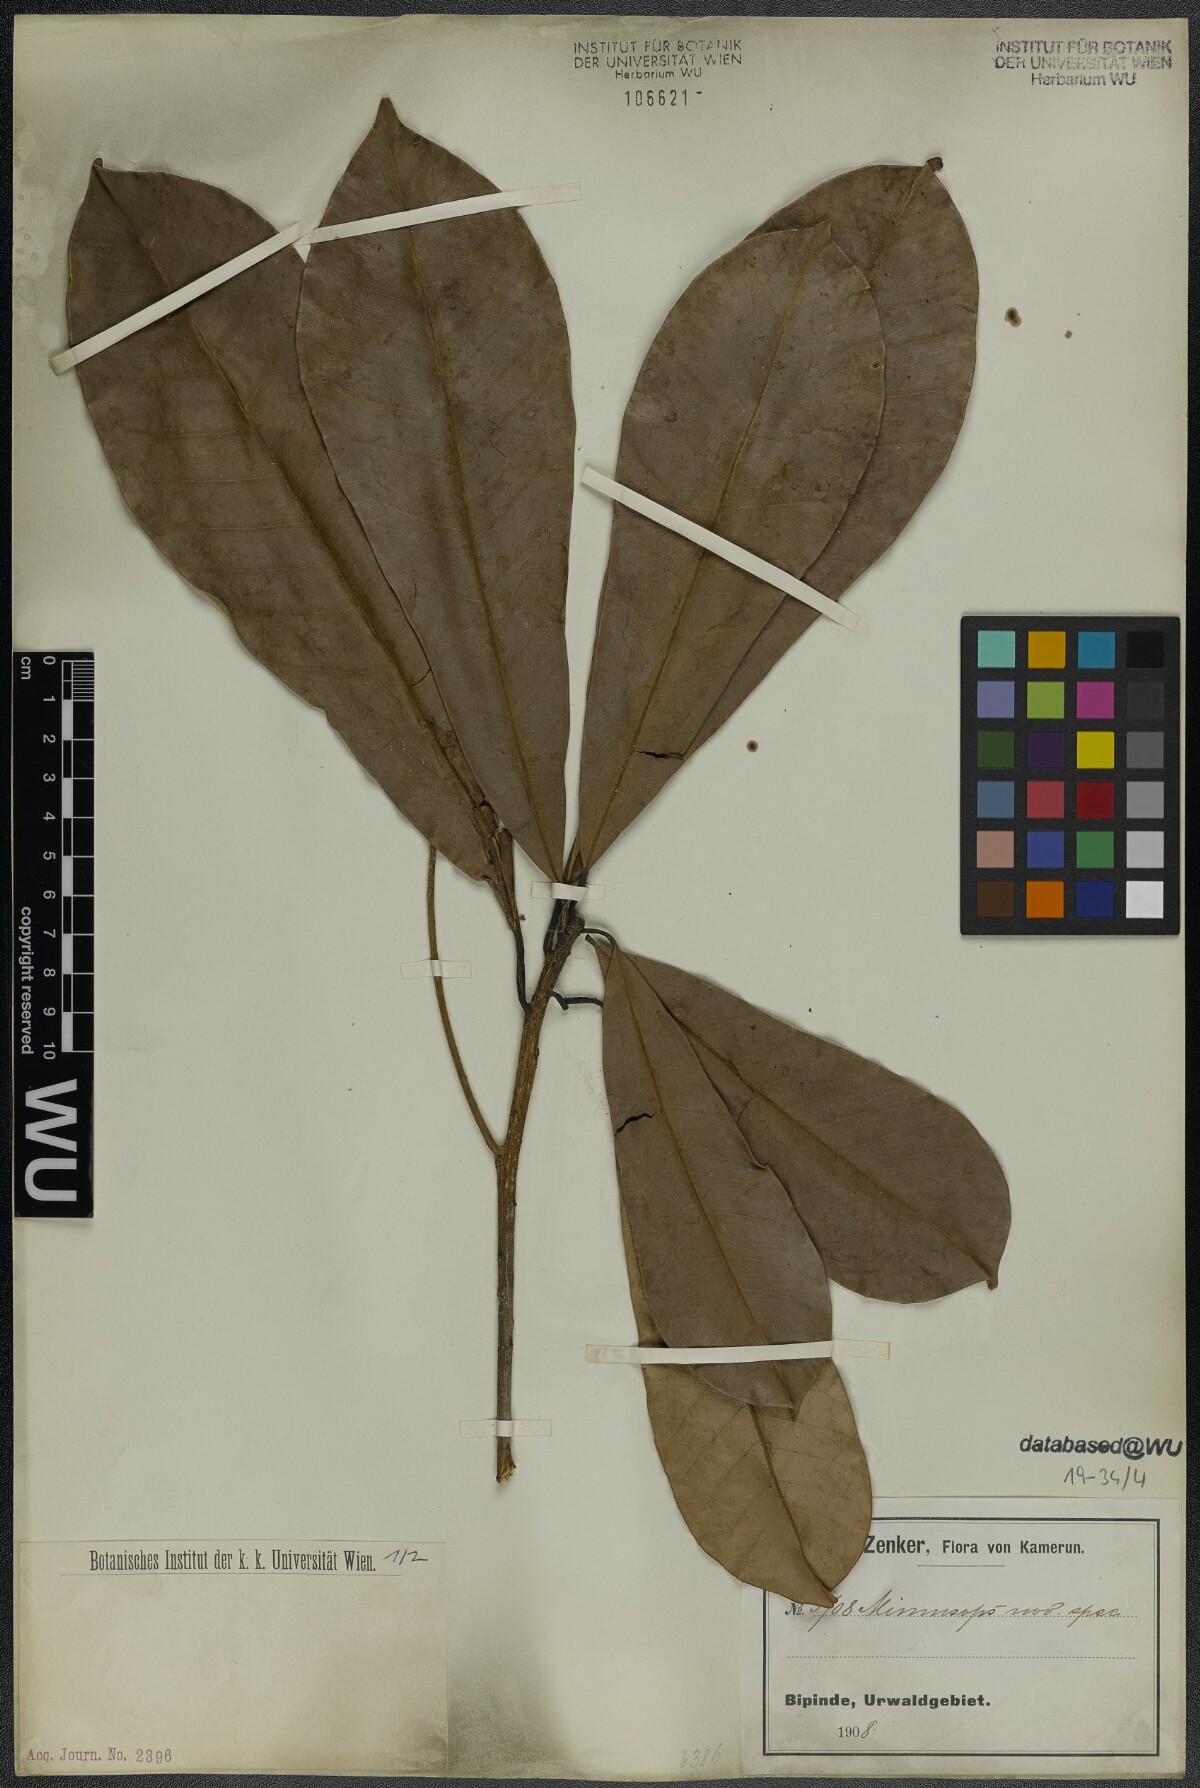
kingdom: Plantae
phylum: Tracheophyta
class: Magnoliopsida
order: Ericales
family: Sapotaceae
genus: Mimusops
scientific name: Mimusops
